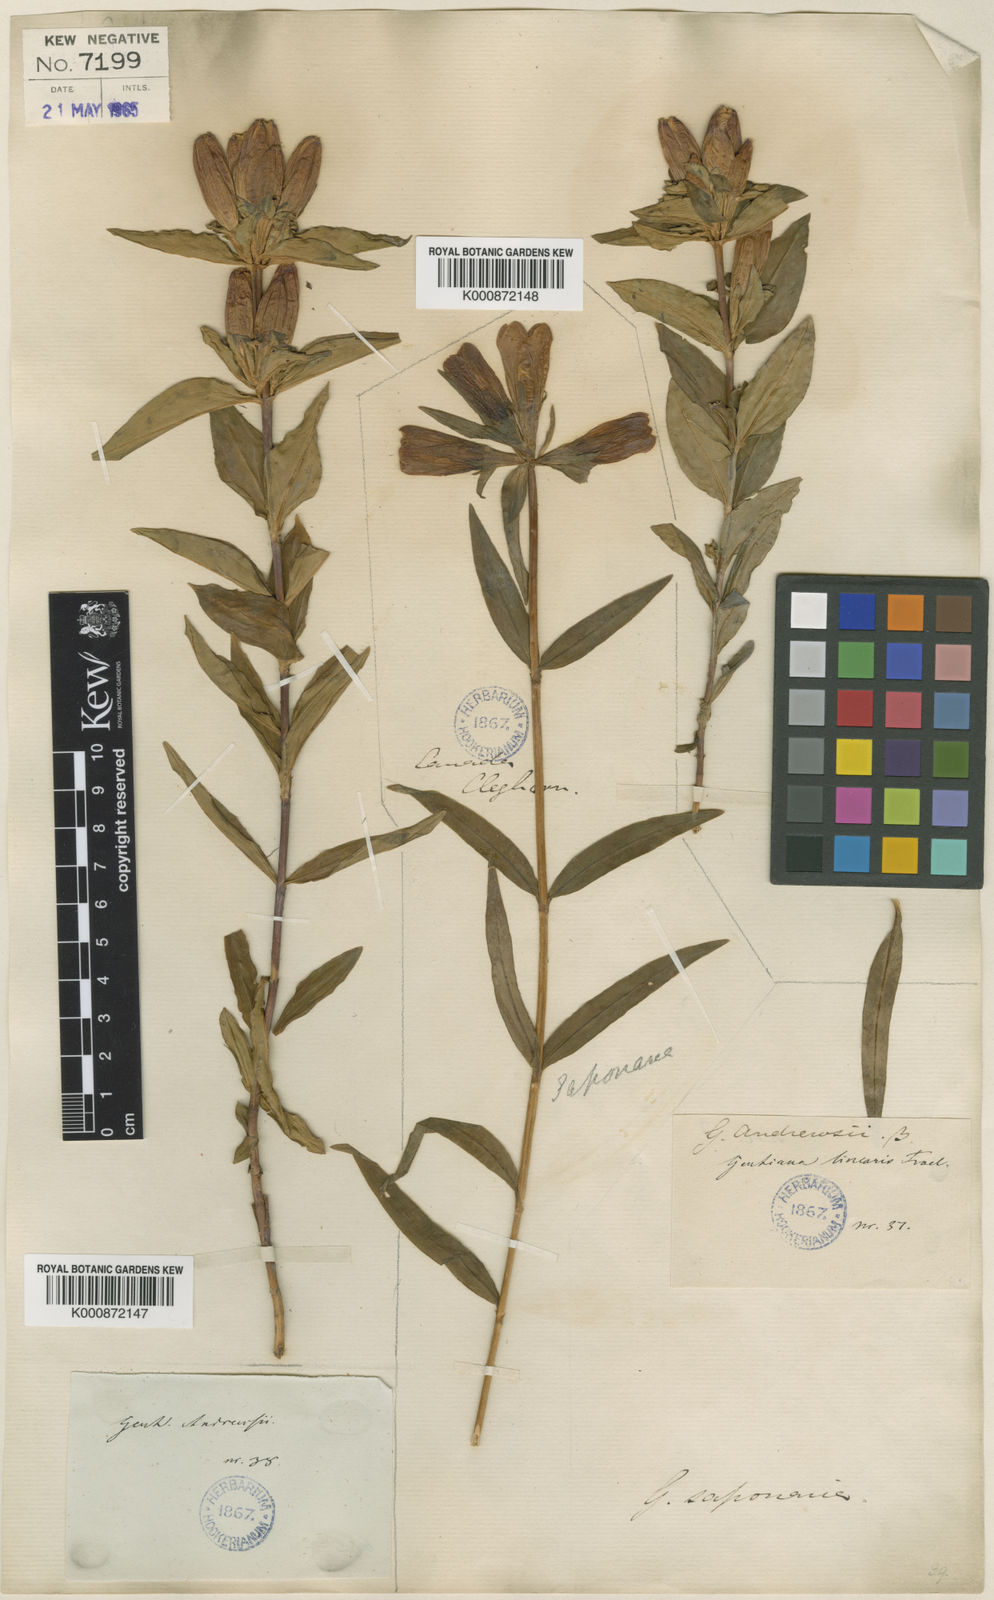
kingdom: Plantae
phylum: Tracheophyta
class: Magnoliopsida
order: Gentianales
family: Gentianaceae
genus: Gentiana
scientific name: Gentiana andrewsii
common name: Bottle gentian
